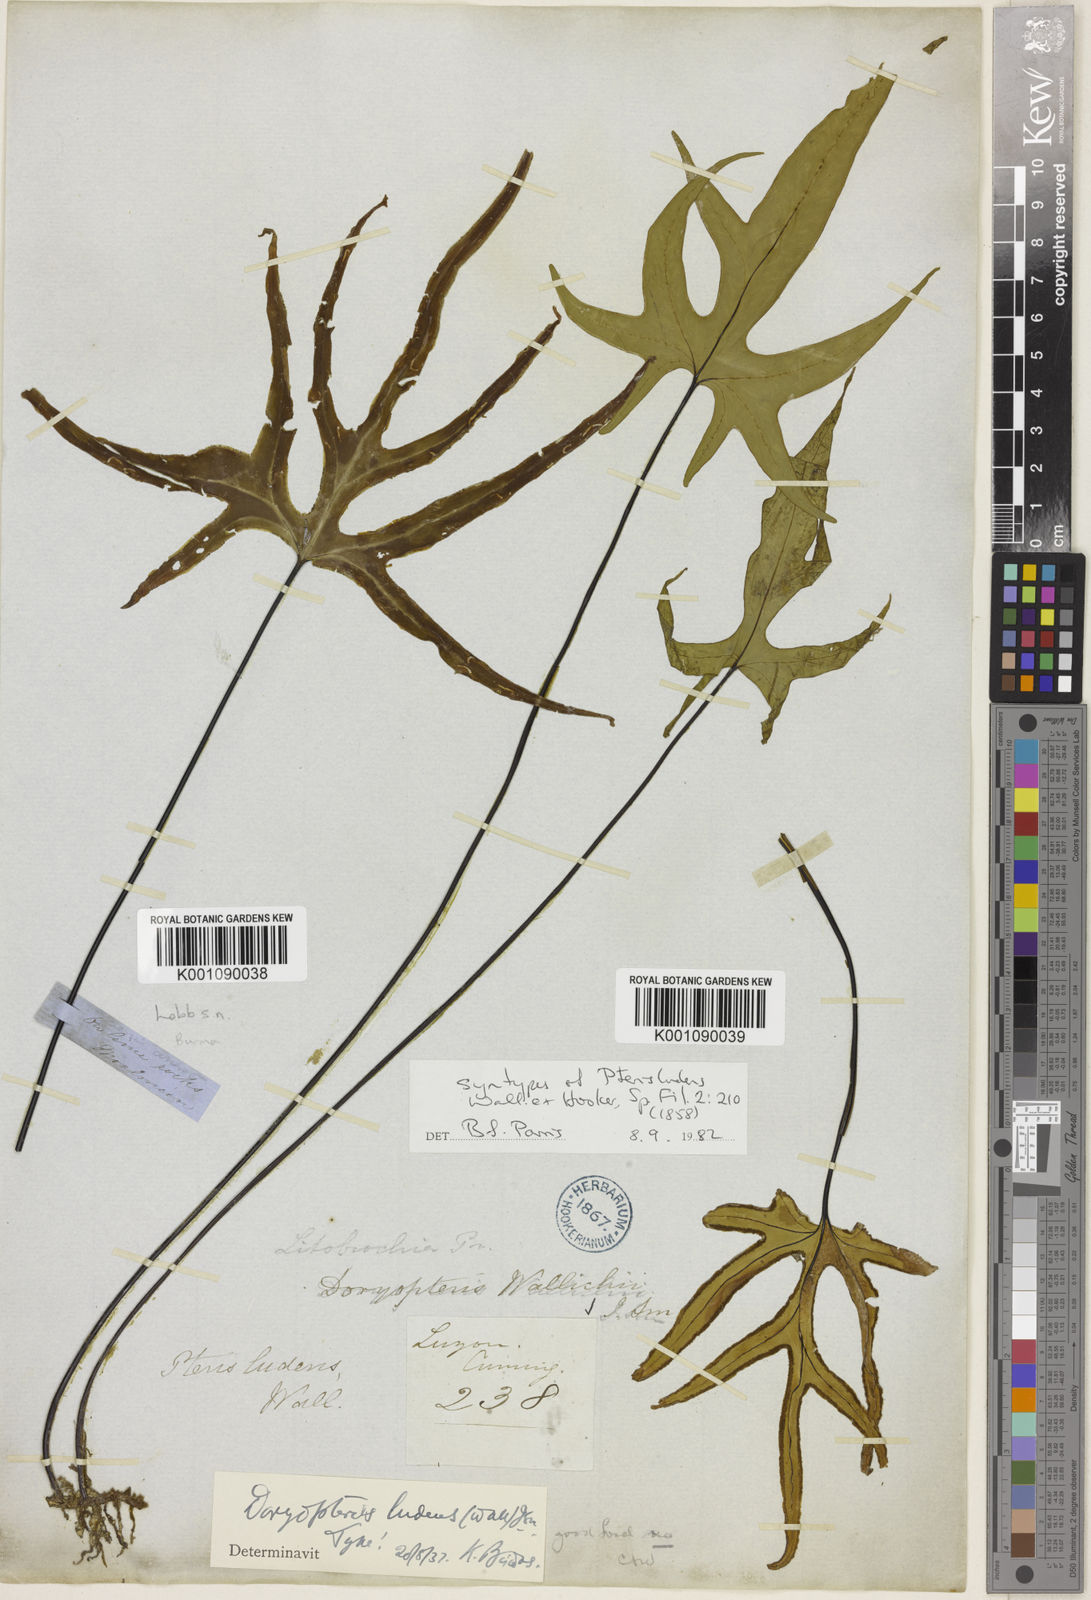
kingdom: Plantae
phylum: Tracheophyta
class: Polypodiopsida
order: Polypodiales
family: Pteridaceae
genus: Calciphilopteris
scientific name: Calciphilopteris ludens
